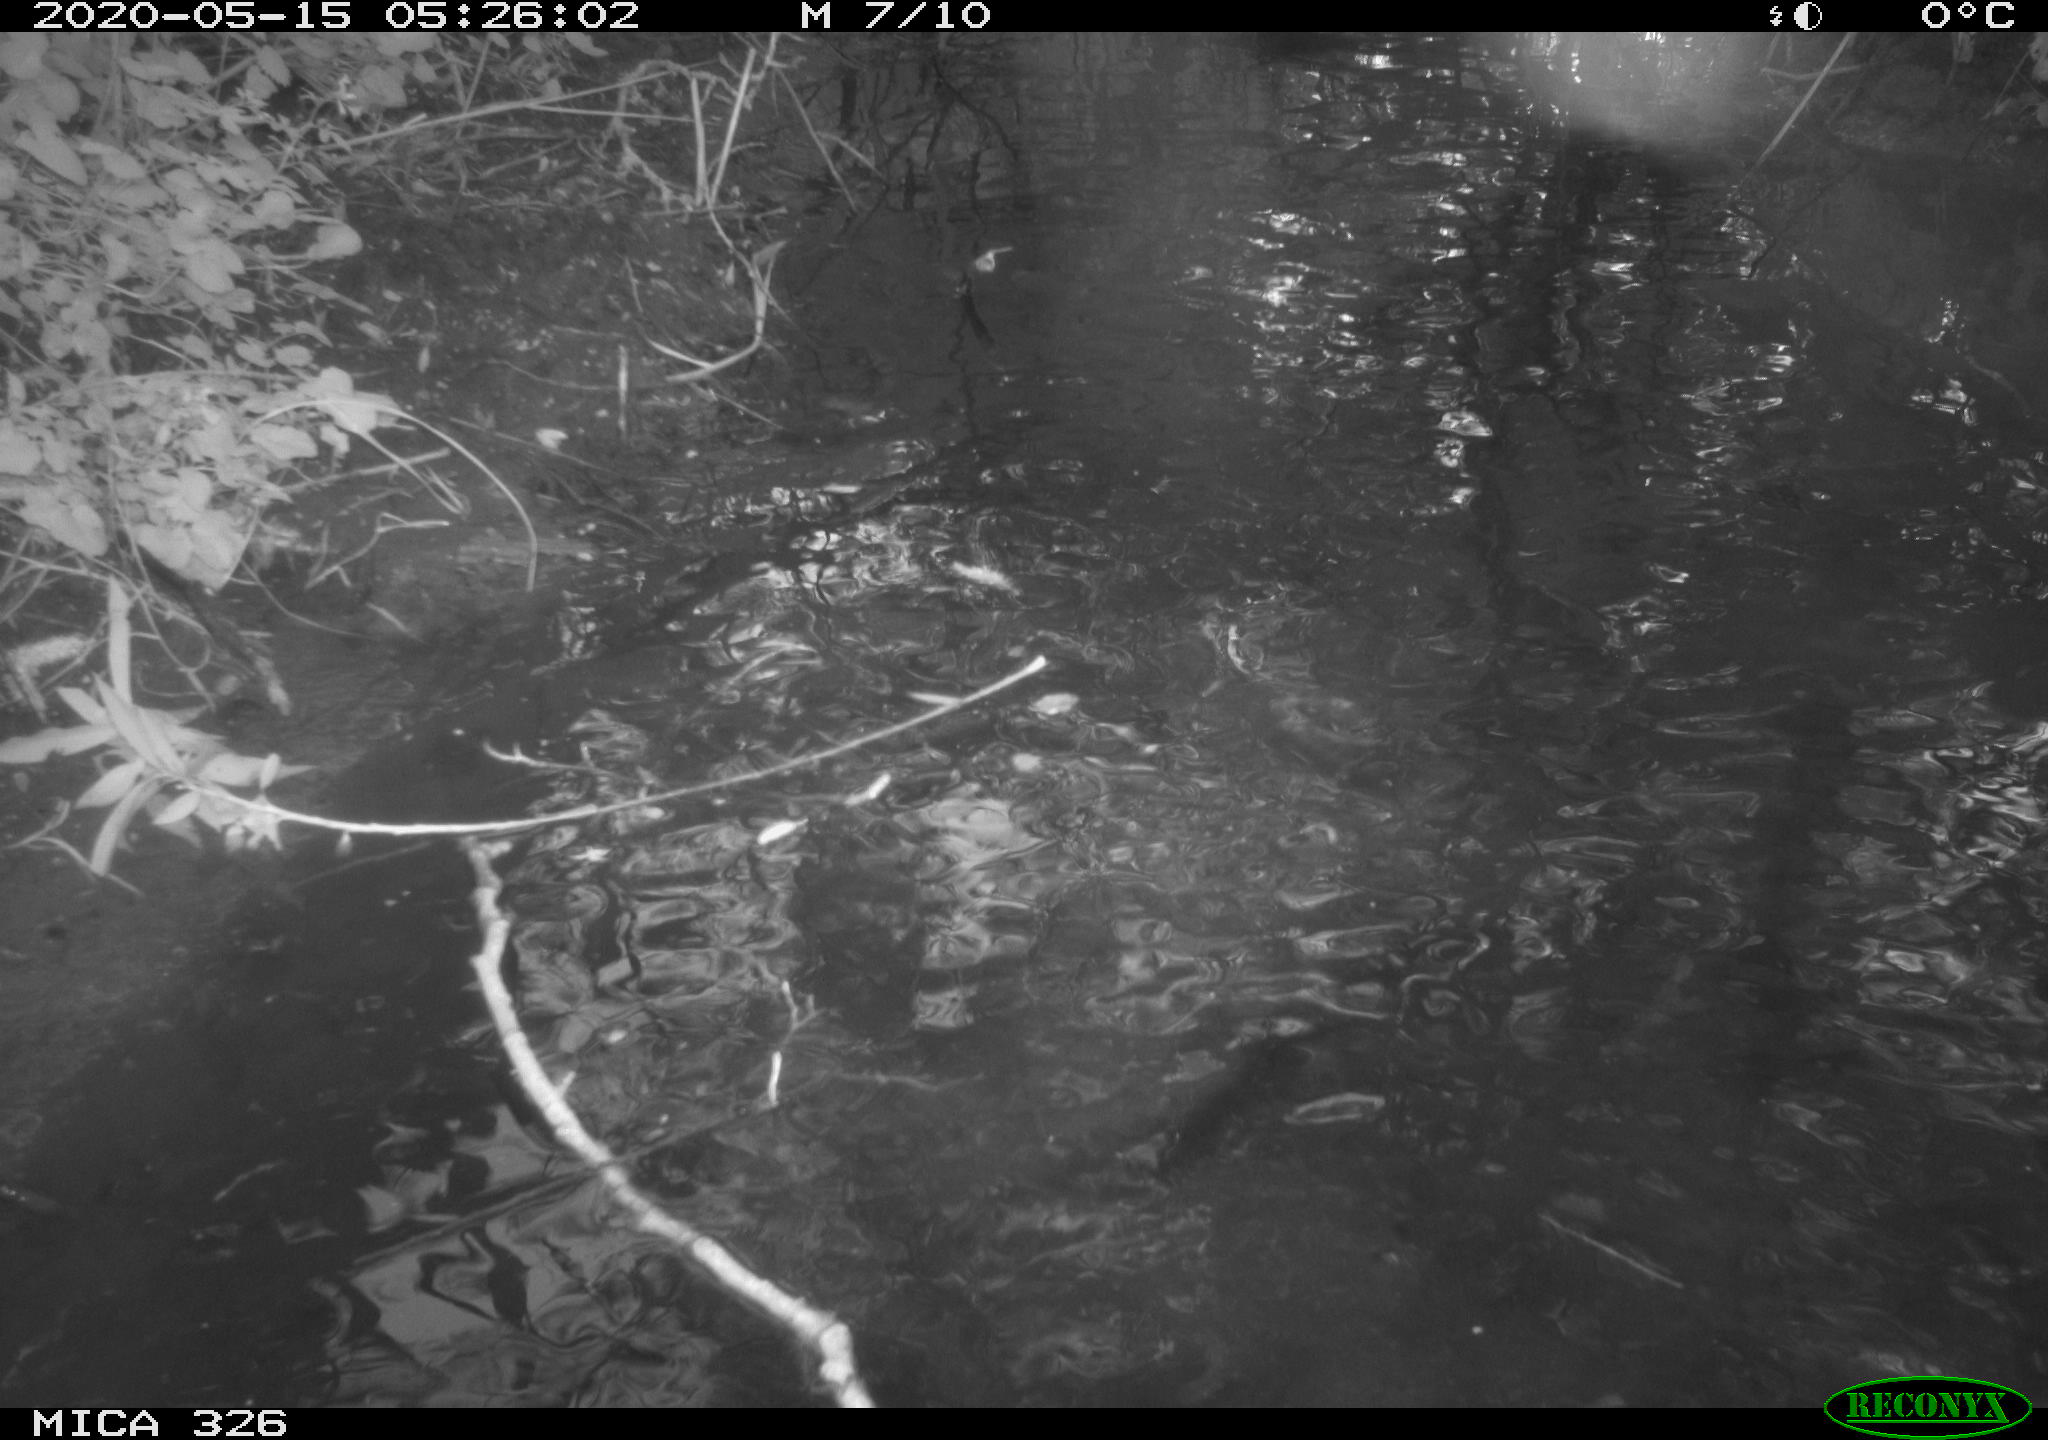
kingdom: Animalia
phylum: Chordata
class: Mammalia
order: Rodentia
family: Myocastoridae
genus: Myocastor
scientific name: Myocastor coypus
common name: Coypu
